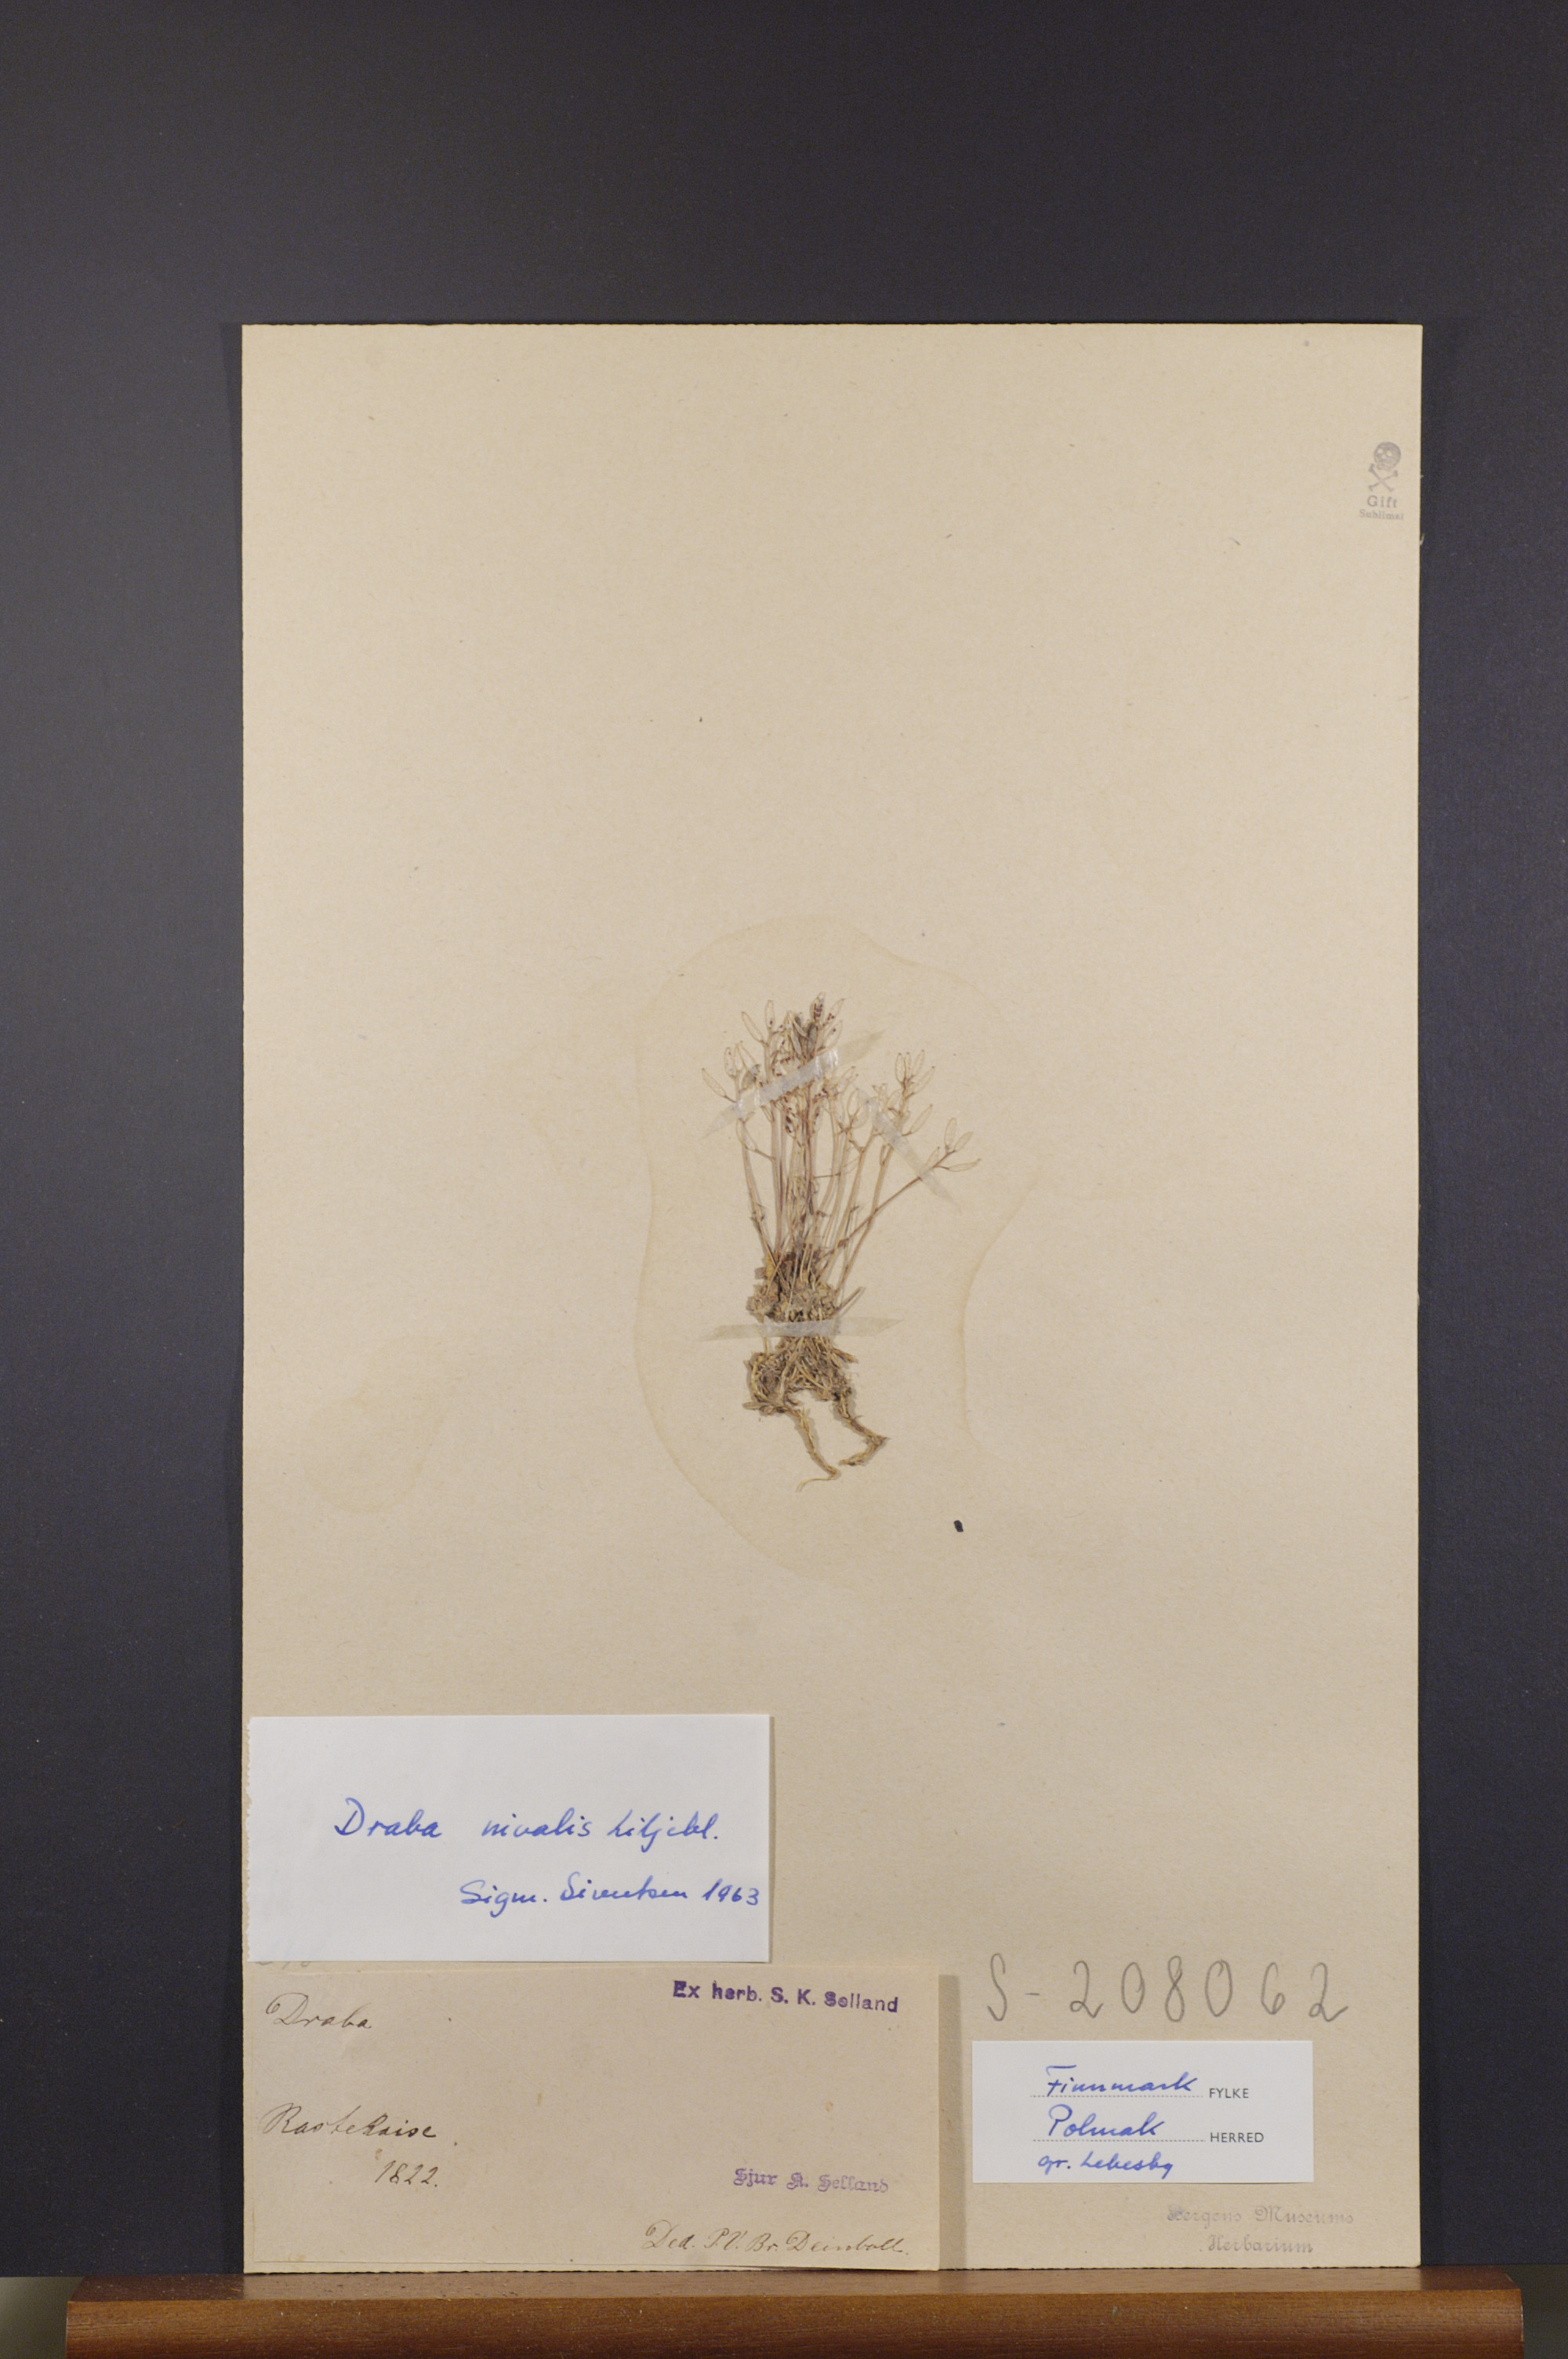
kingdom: Plantae
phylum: Tracheophyta
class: Magnoliopsida
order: Brassicales
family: Brassicaceae
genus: Draba
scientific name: Draba nivalis
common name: Snow draba
